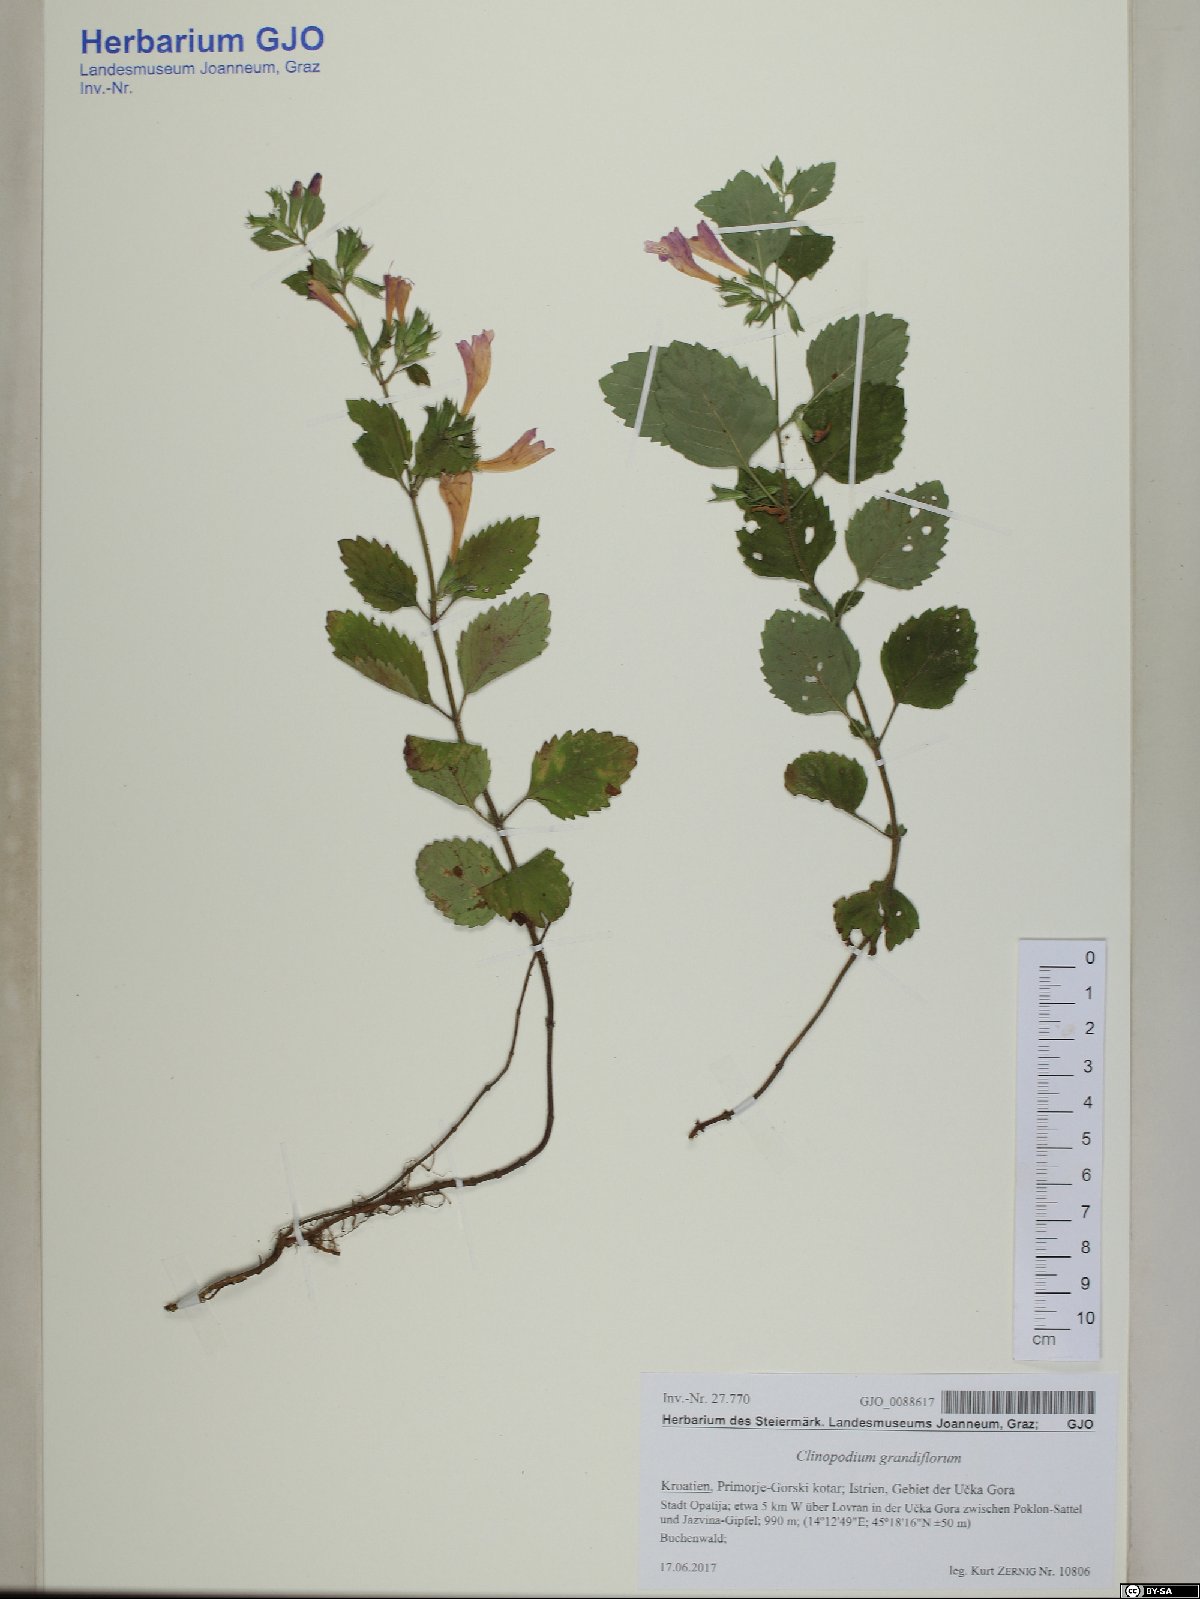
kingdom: Plantae
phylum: Tracheophyta
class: Magnoliopsida
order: Lamiales
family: Lamiaceae
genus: Clinopodium
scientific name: Clinopodium grandiflorum
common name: Greater calamint
